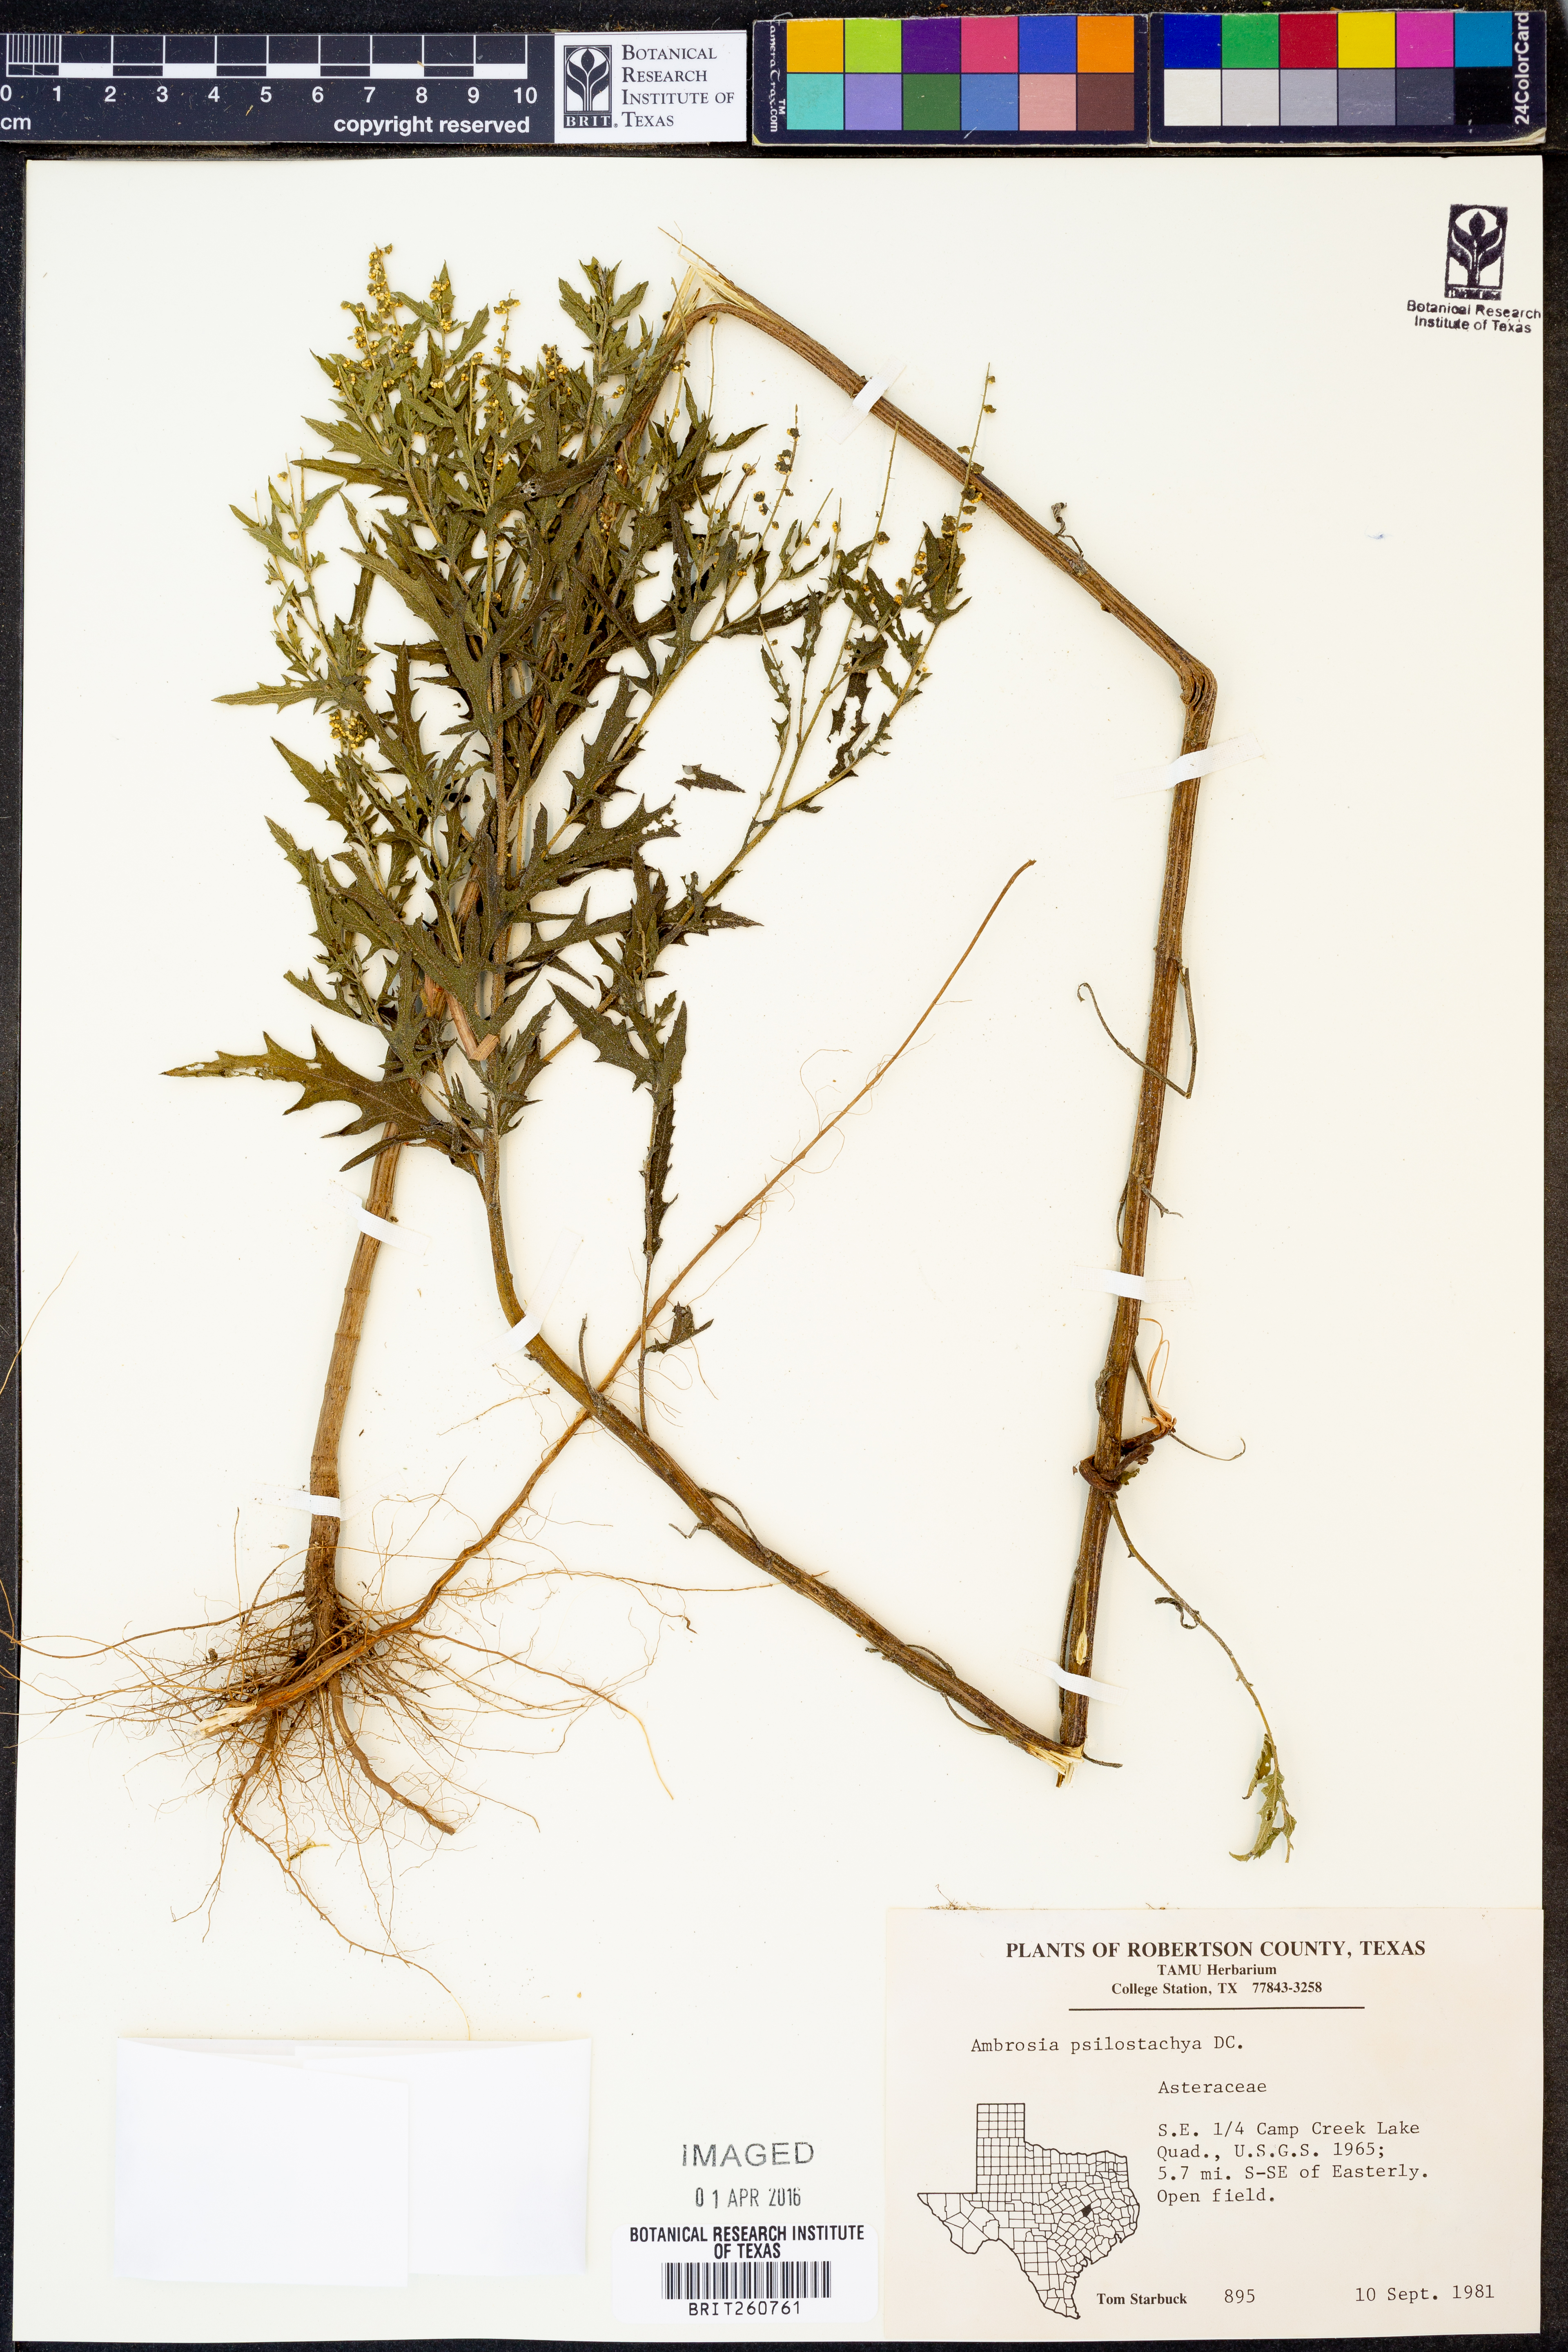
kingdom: Plantae
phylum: Tracheophyta
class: Magnoliopsida
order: Asterales
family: Asteraceae
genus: Ambrosia
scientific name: Ambrosia psilostachya
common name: Perennial ragweed
